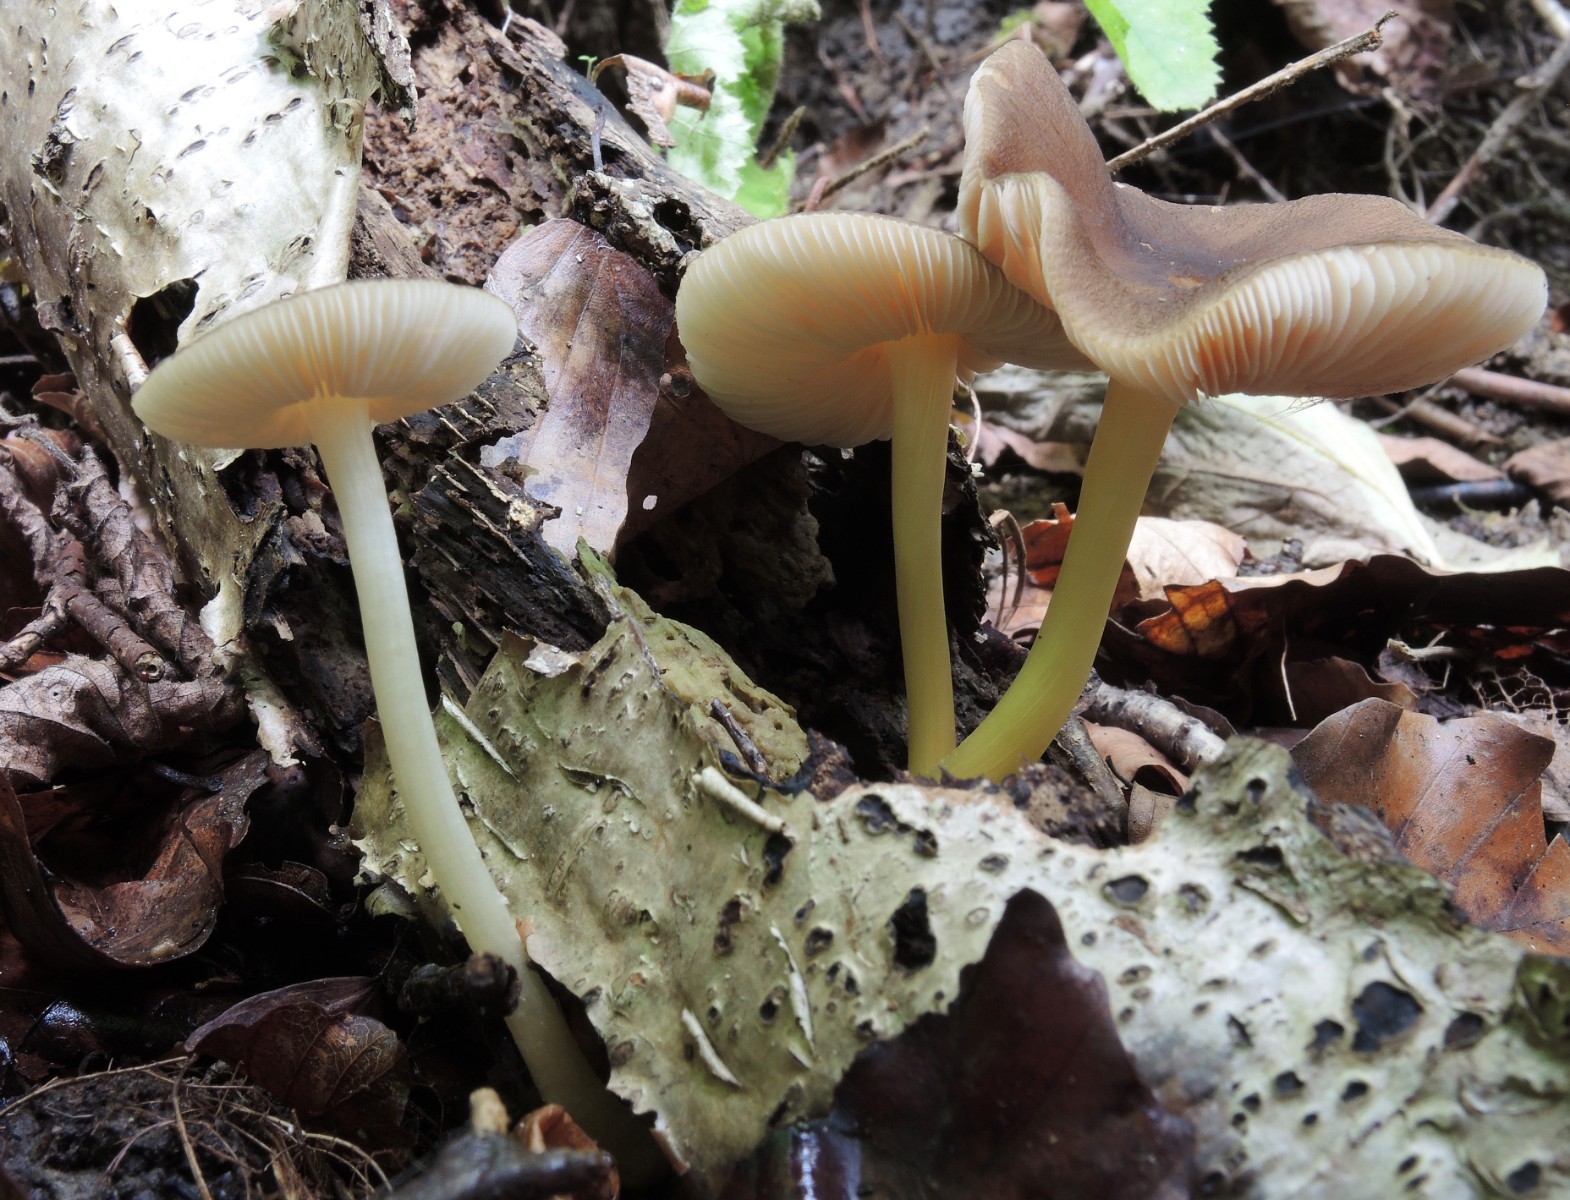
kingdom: Fungi
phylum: Basidiomycota
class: Agaricomycetes
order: Agaricales
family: Pluteaceae
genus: Pluteus
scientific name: Pluteus romellii
